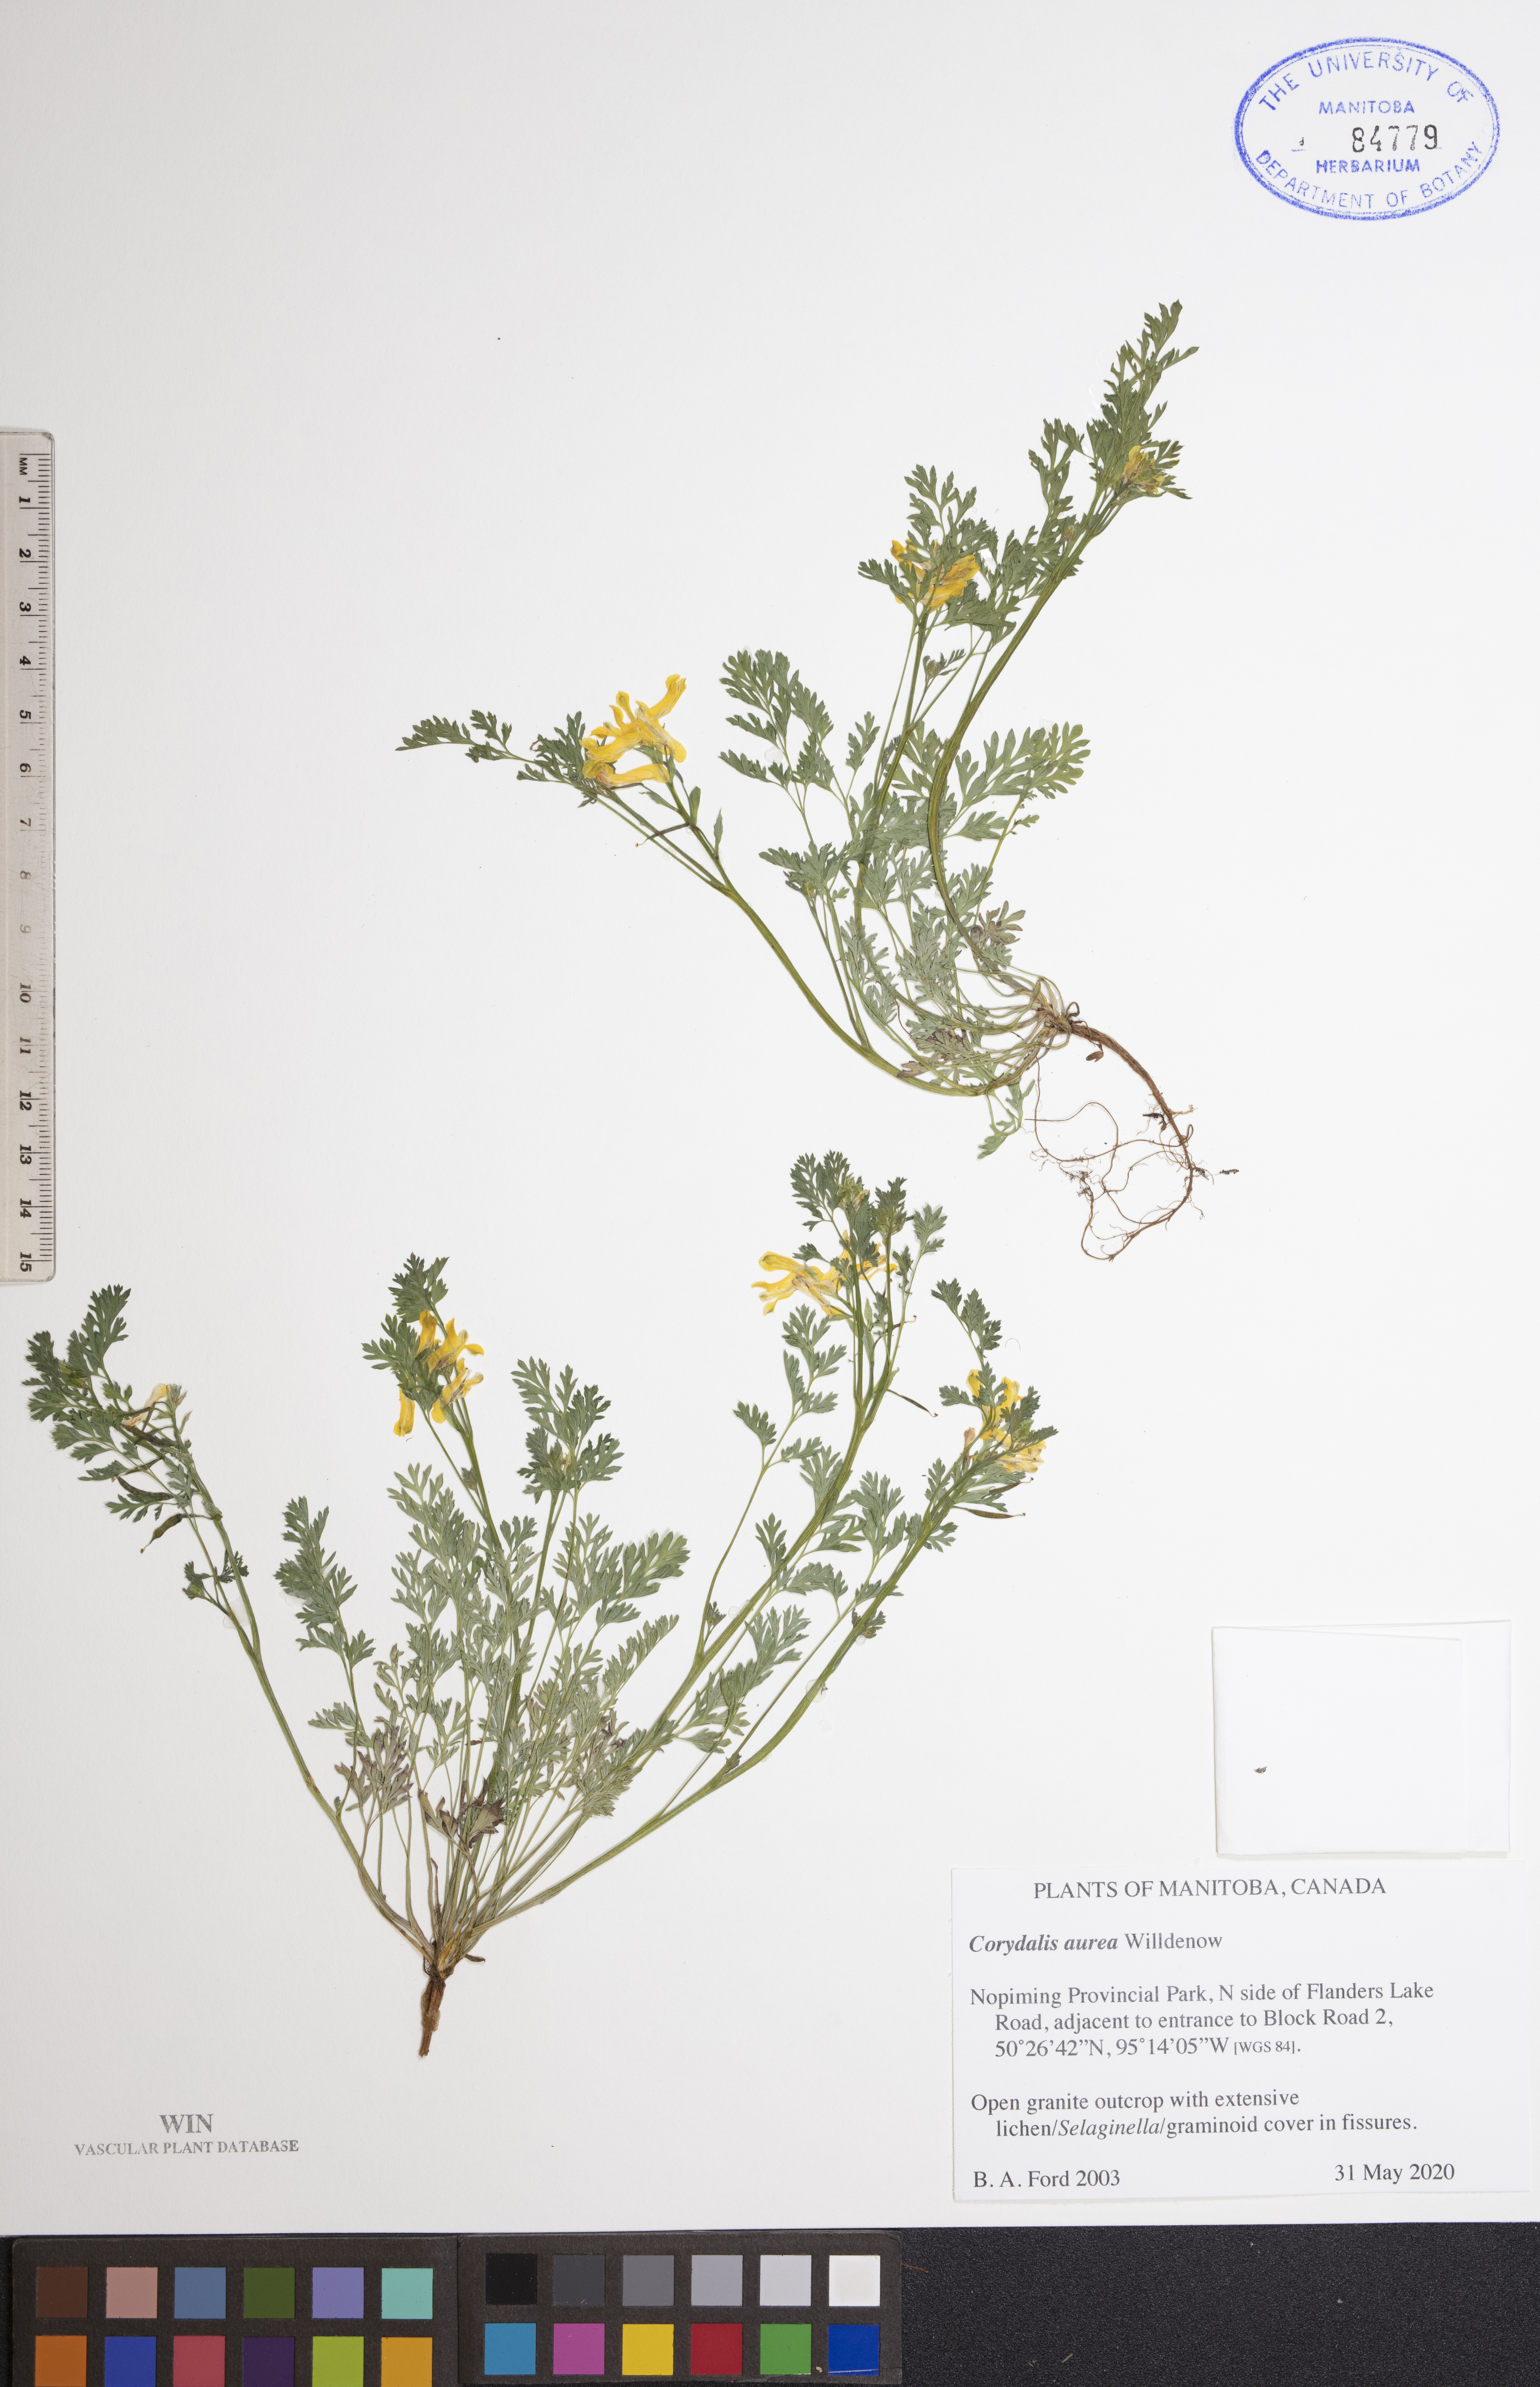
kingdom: Plantae
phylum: Tracheophyta
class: Magnoliopsida
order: Ranunculales
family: Papaveraceae
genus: Corydalis
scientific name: Corydalis aurea
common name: Golden corydalis
